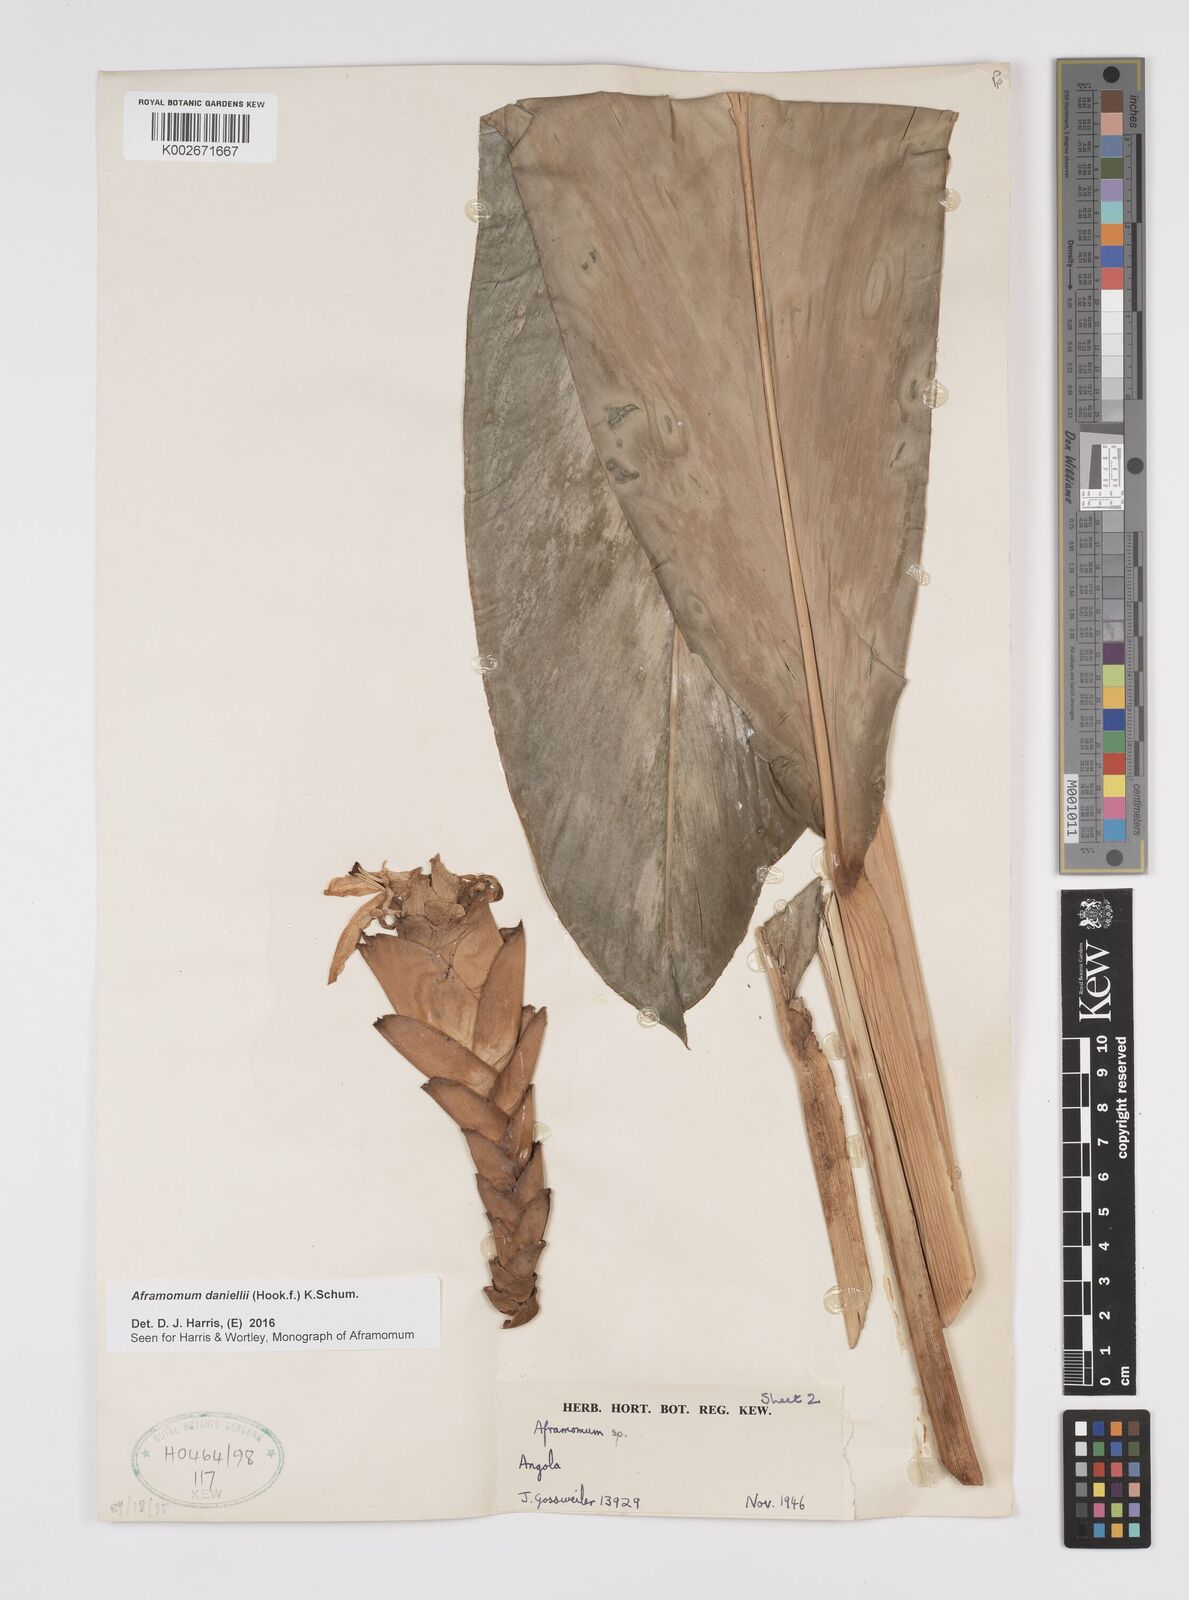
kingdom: Plantae
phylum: Tracheophyta
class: Liliopsida
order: Zingiberales
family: Zingiberaceae
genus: Aframomum
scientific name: Aframomum
